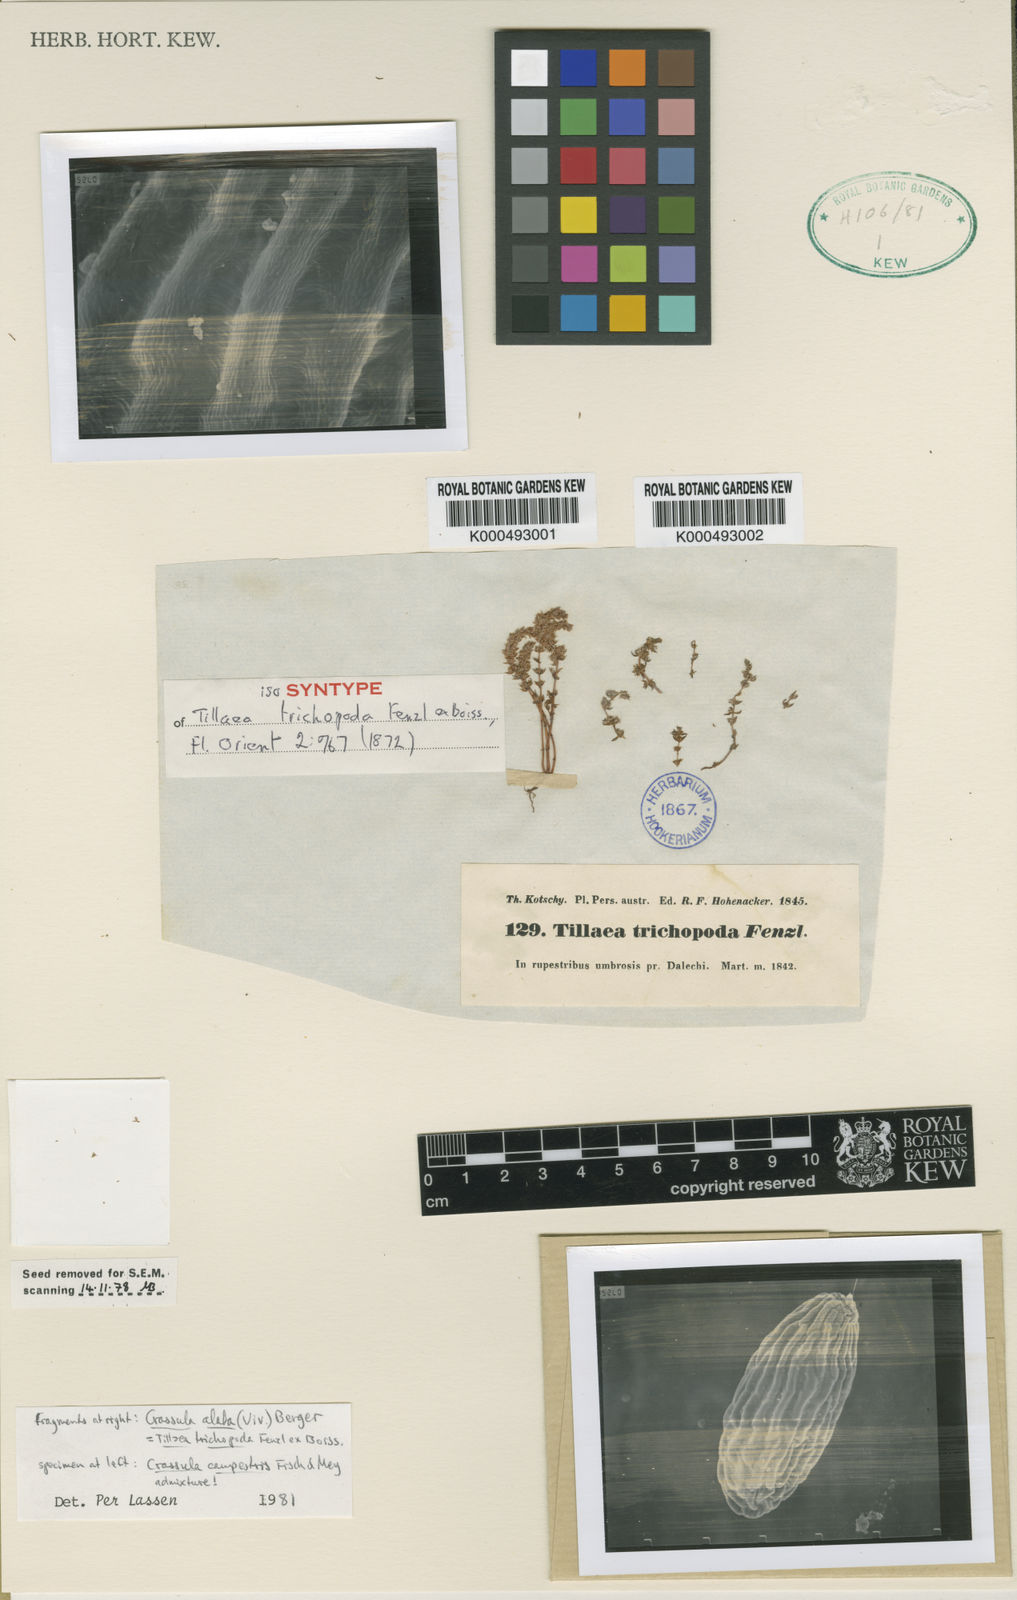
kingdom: Plantae
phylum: Tracheophyta
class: Magnoliopsida
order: Saxifragales
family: Crassulaceae
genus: Crassula
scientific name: Crassula campestris
